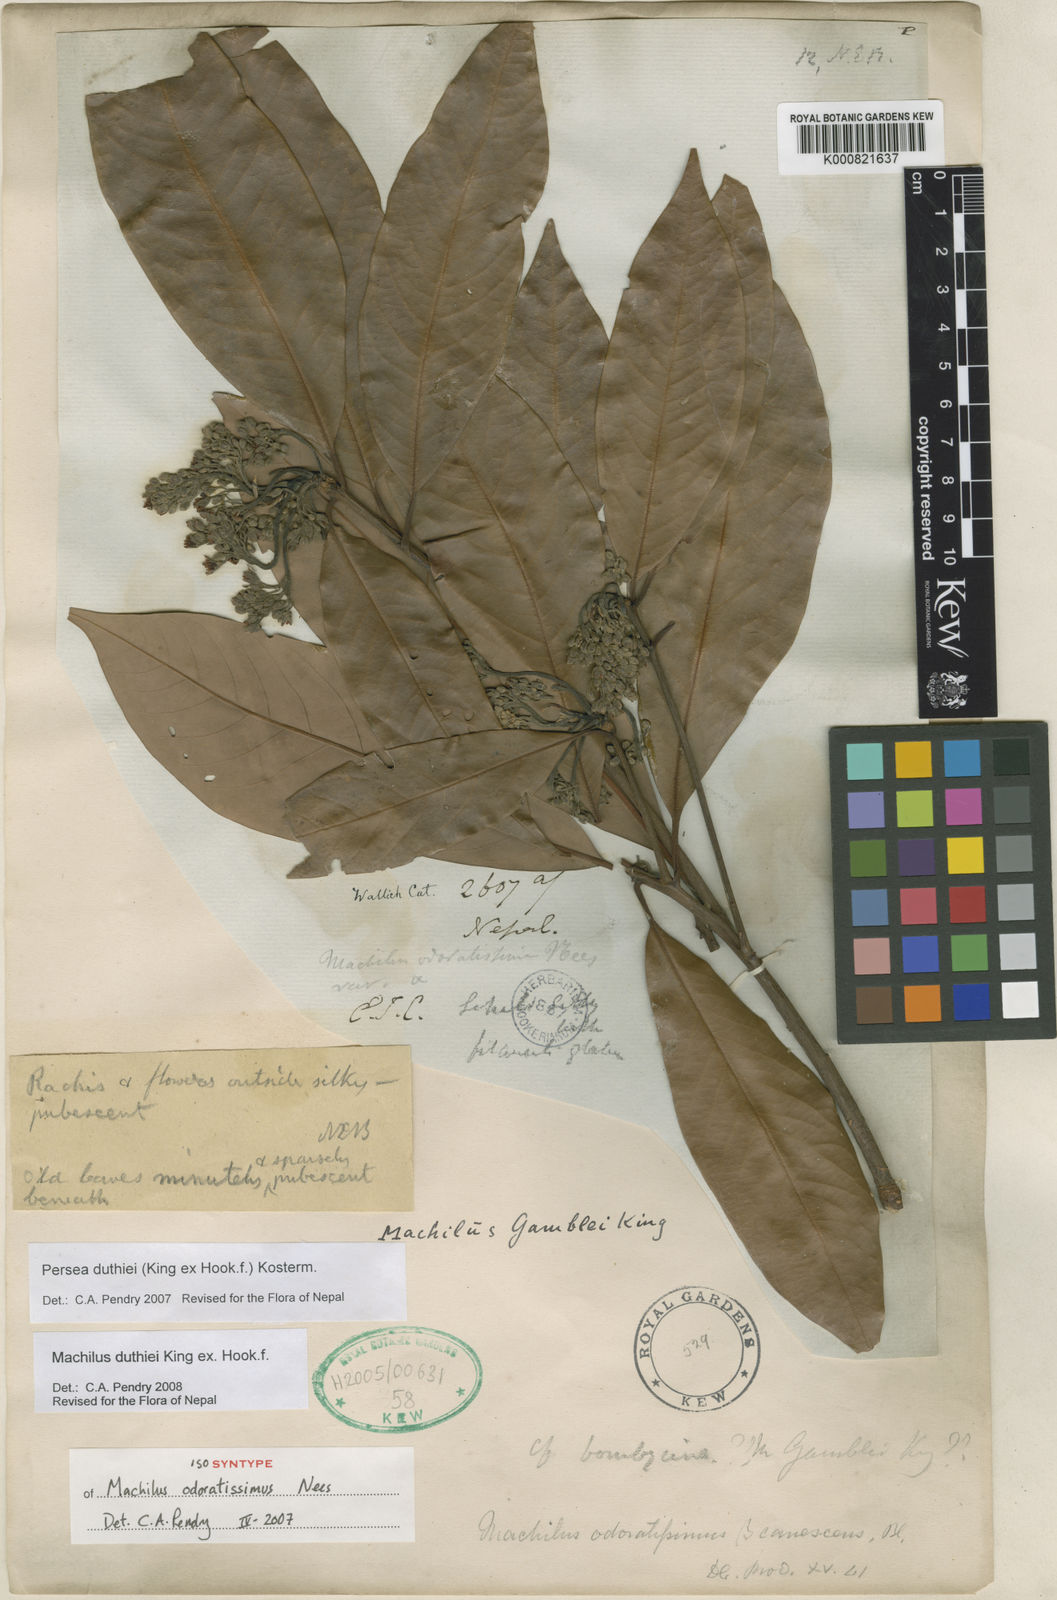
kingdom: Plantae
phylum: Tracheophyta
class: Magnoliopsida
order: Laurales
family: Lauraceae
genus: Machilus
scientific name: Machilus duthiei
